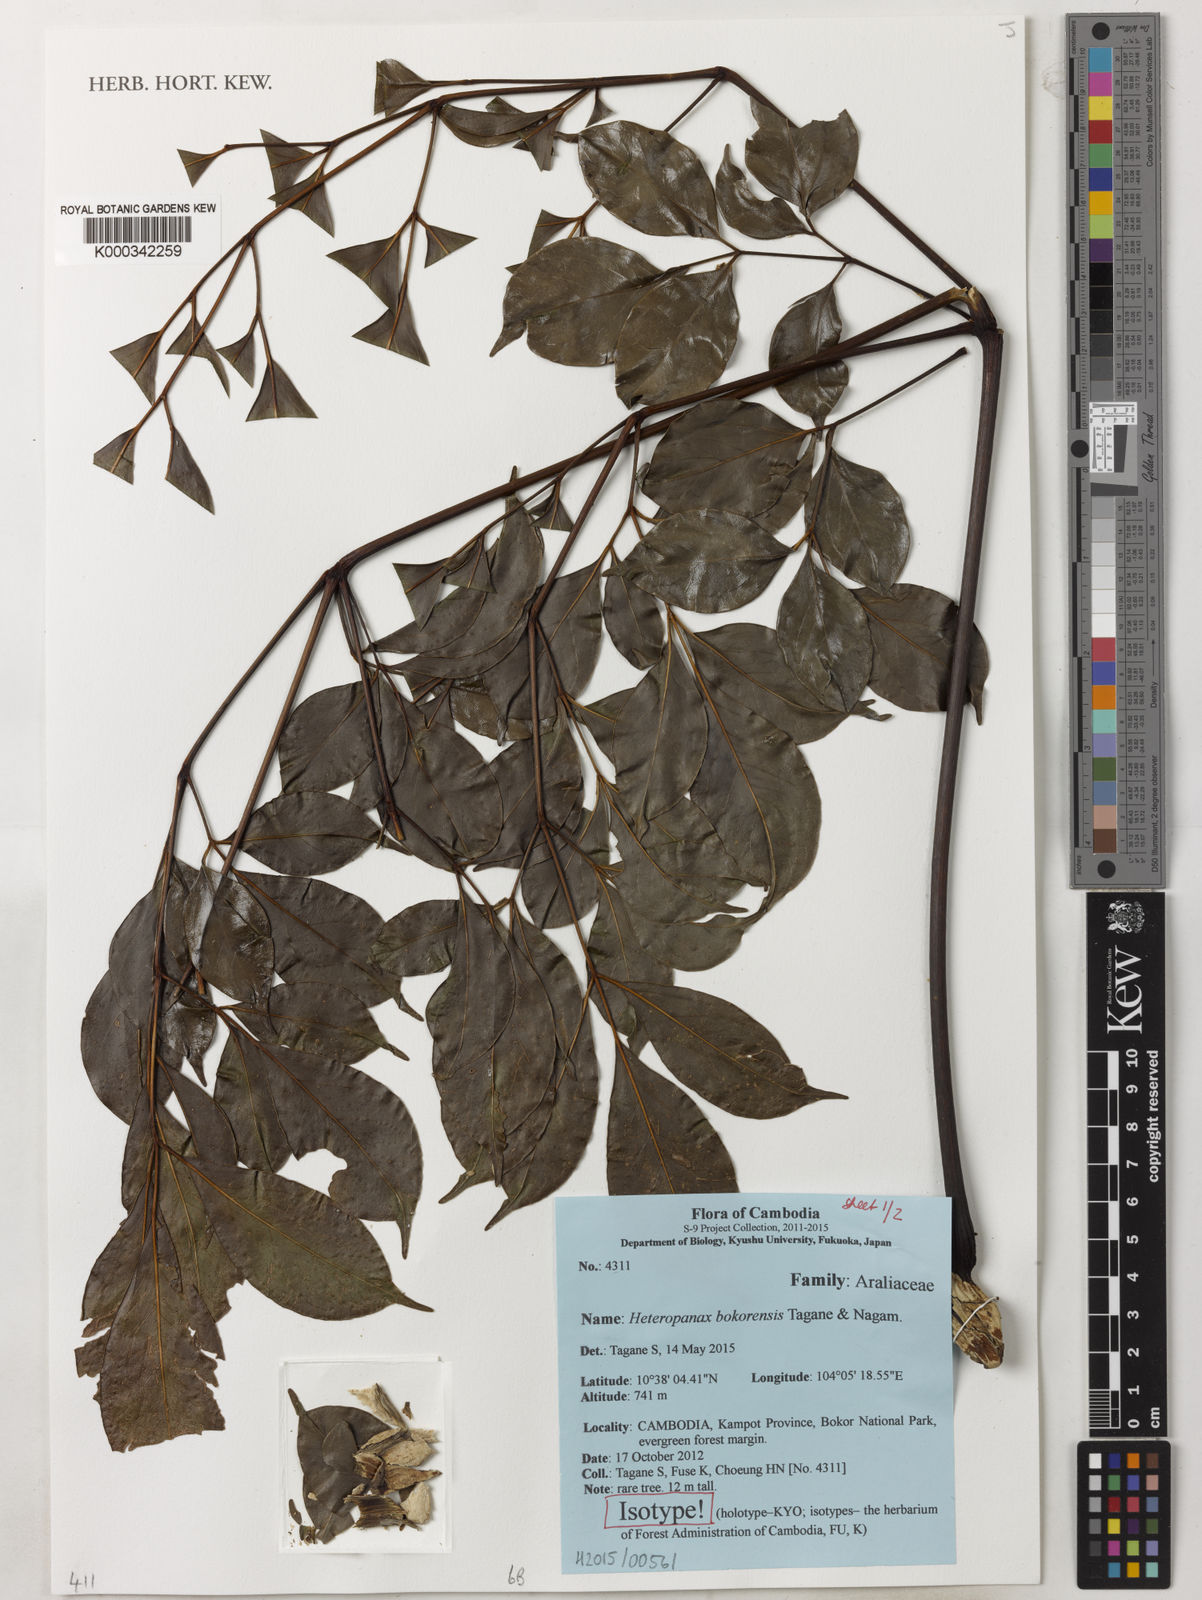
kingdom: Plantae
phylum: Tracheophyta
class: Magnoliopsida
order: Apiales
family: Araliaceae
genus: Heteropanax
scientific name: Heteropanax bokorensis
